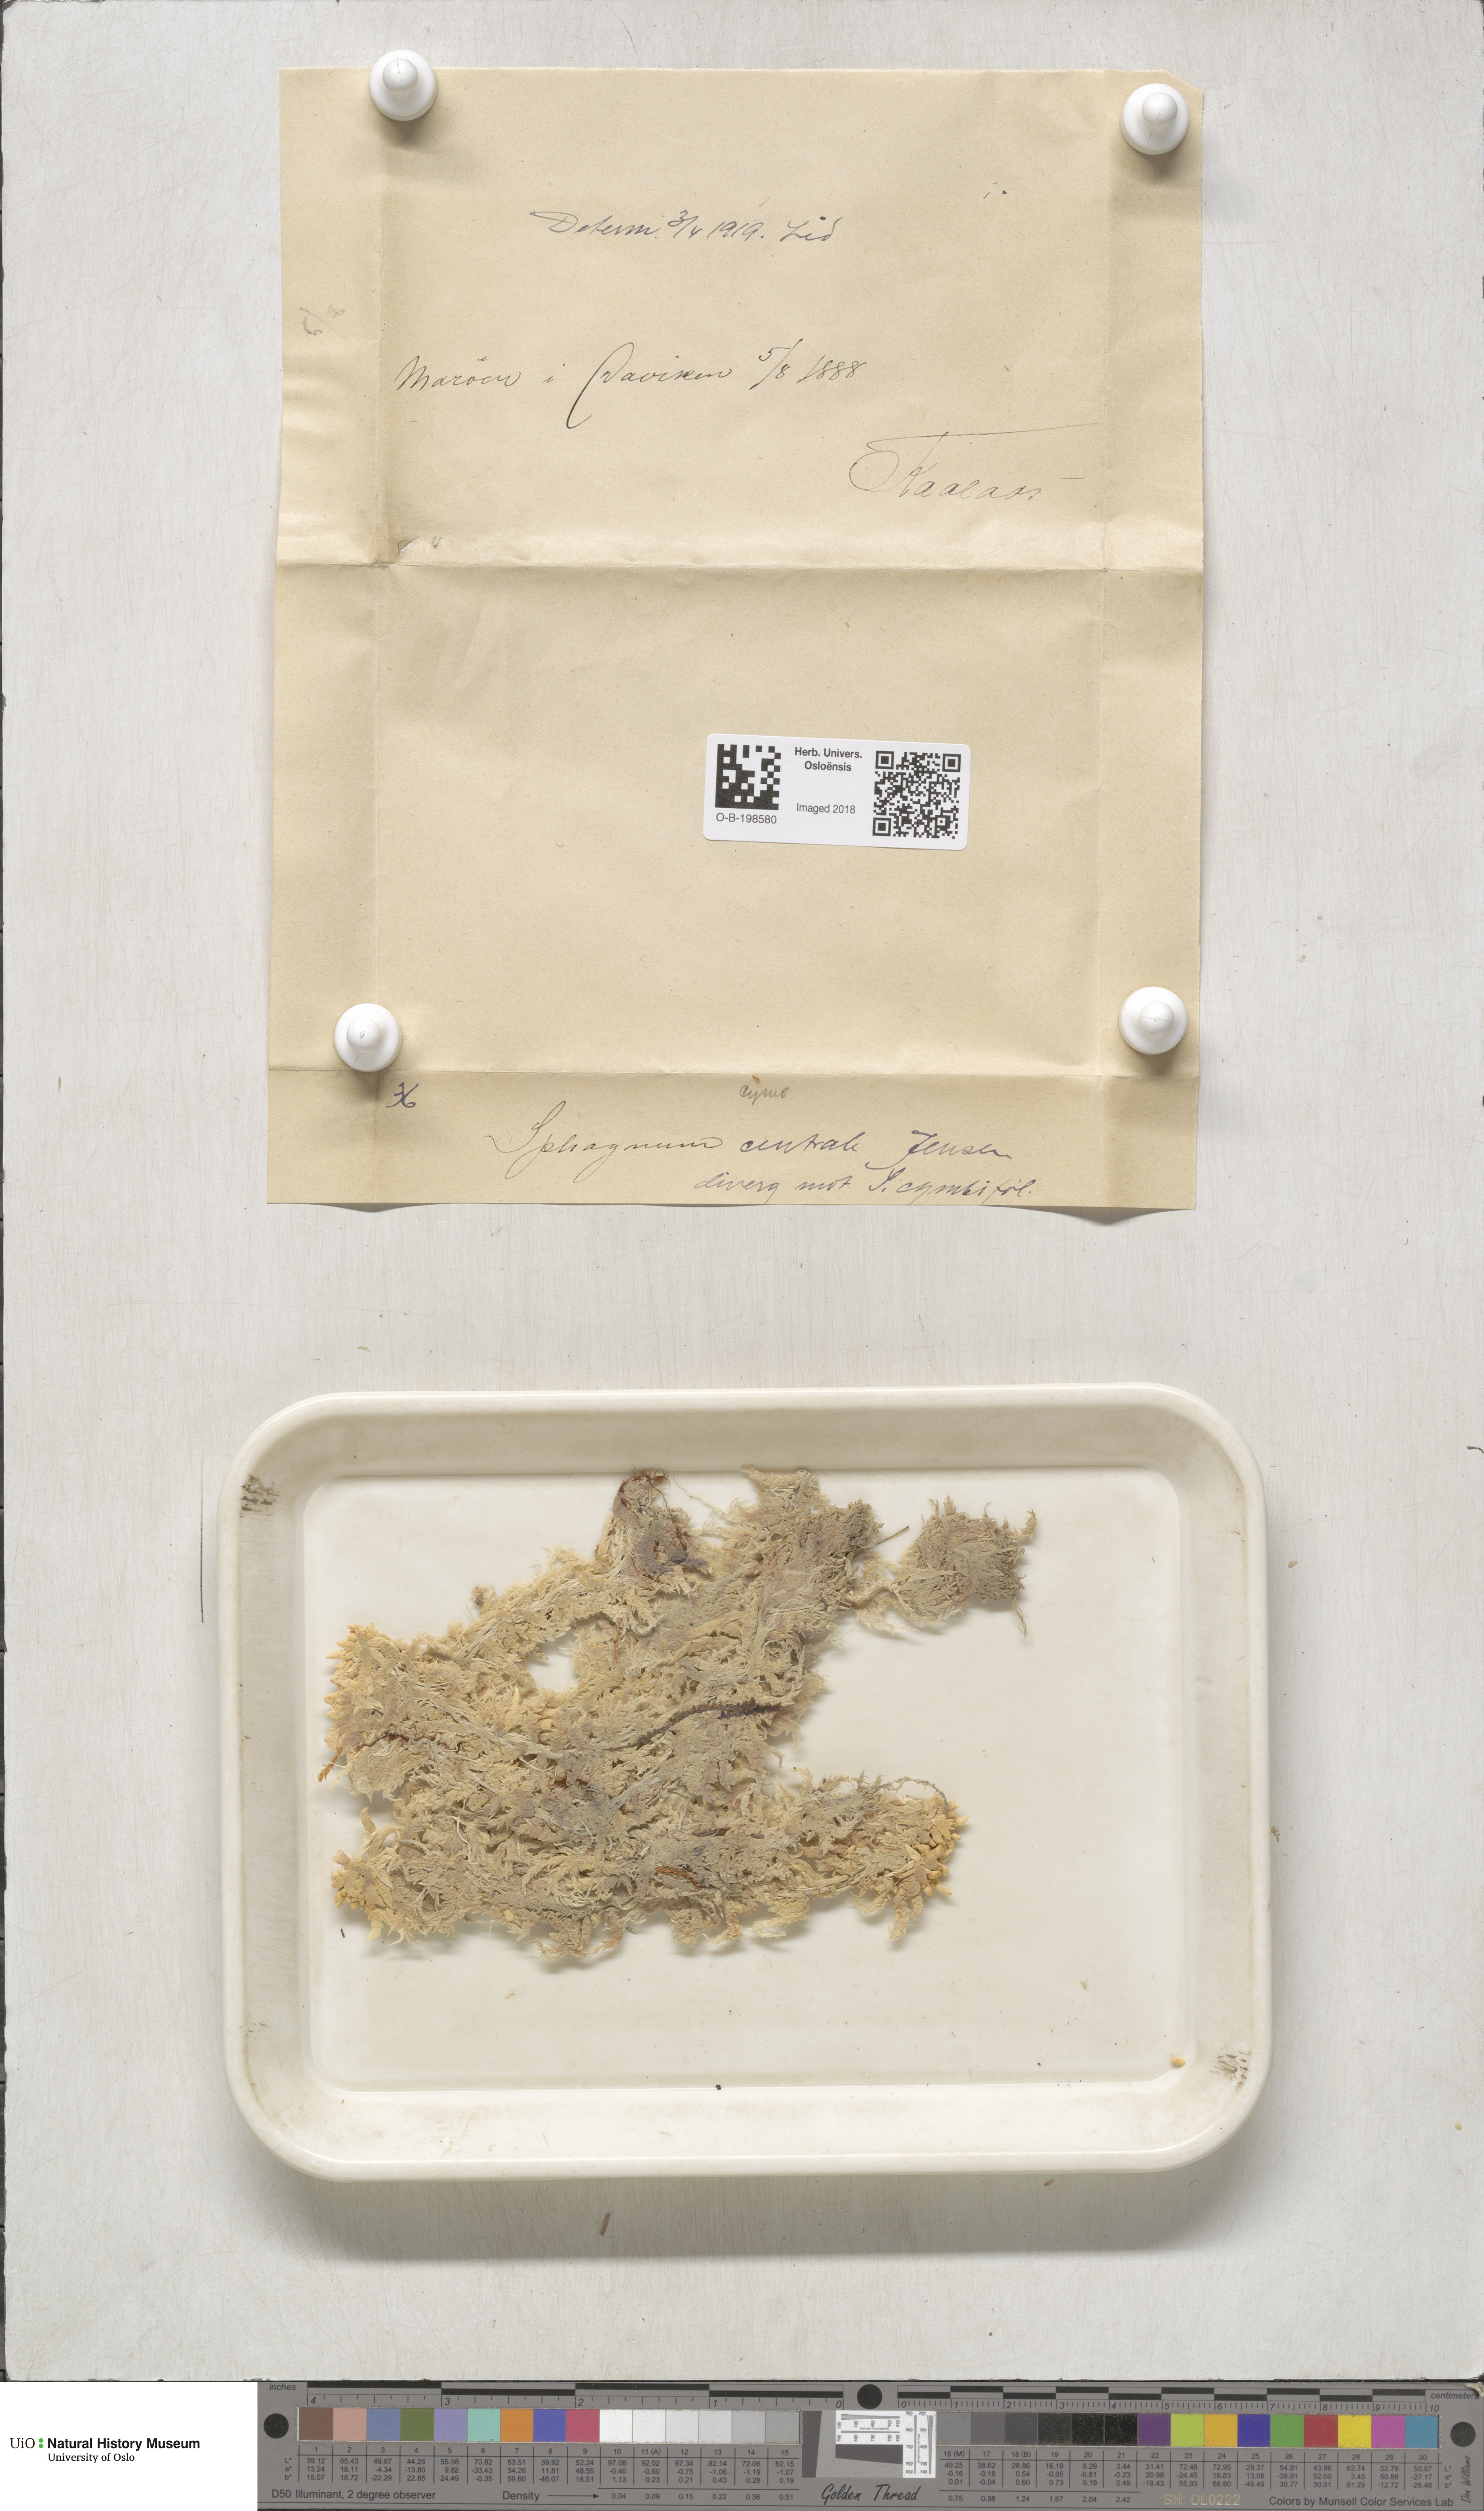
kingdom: Plantae
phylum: Bryophyta
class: Sphagnopsida
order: Sphagnales
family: Sphagnaceae
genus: Sphagnum
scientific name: Sphagnum centrale
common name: Central peat moss
